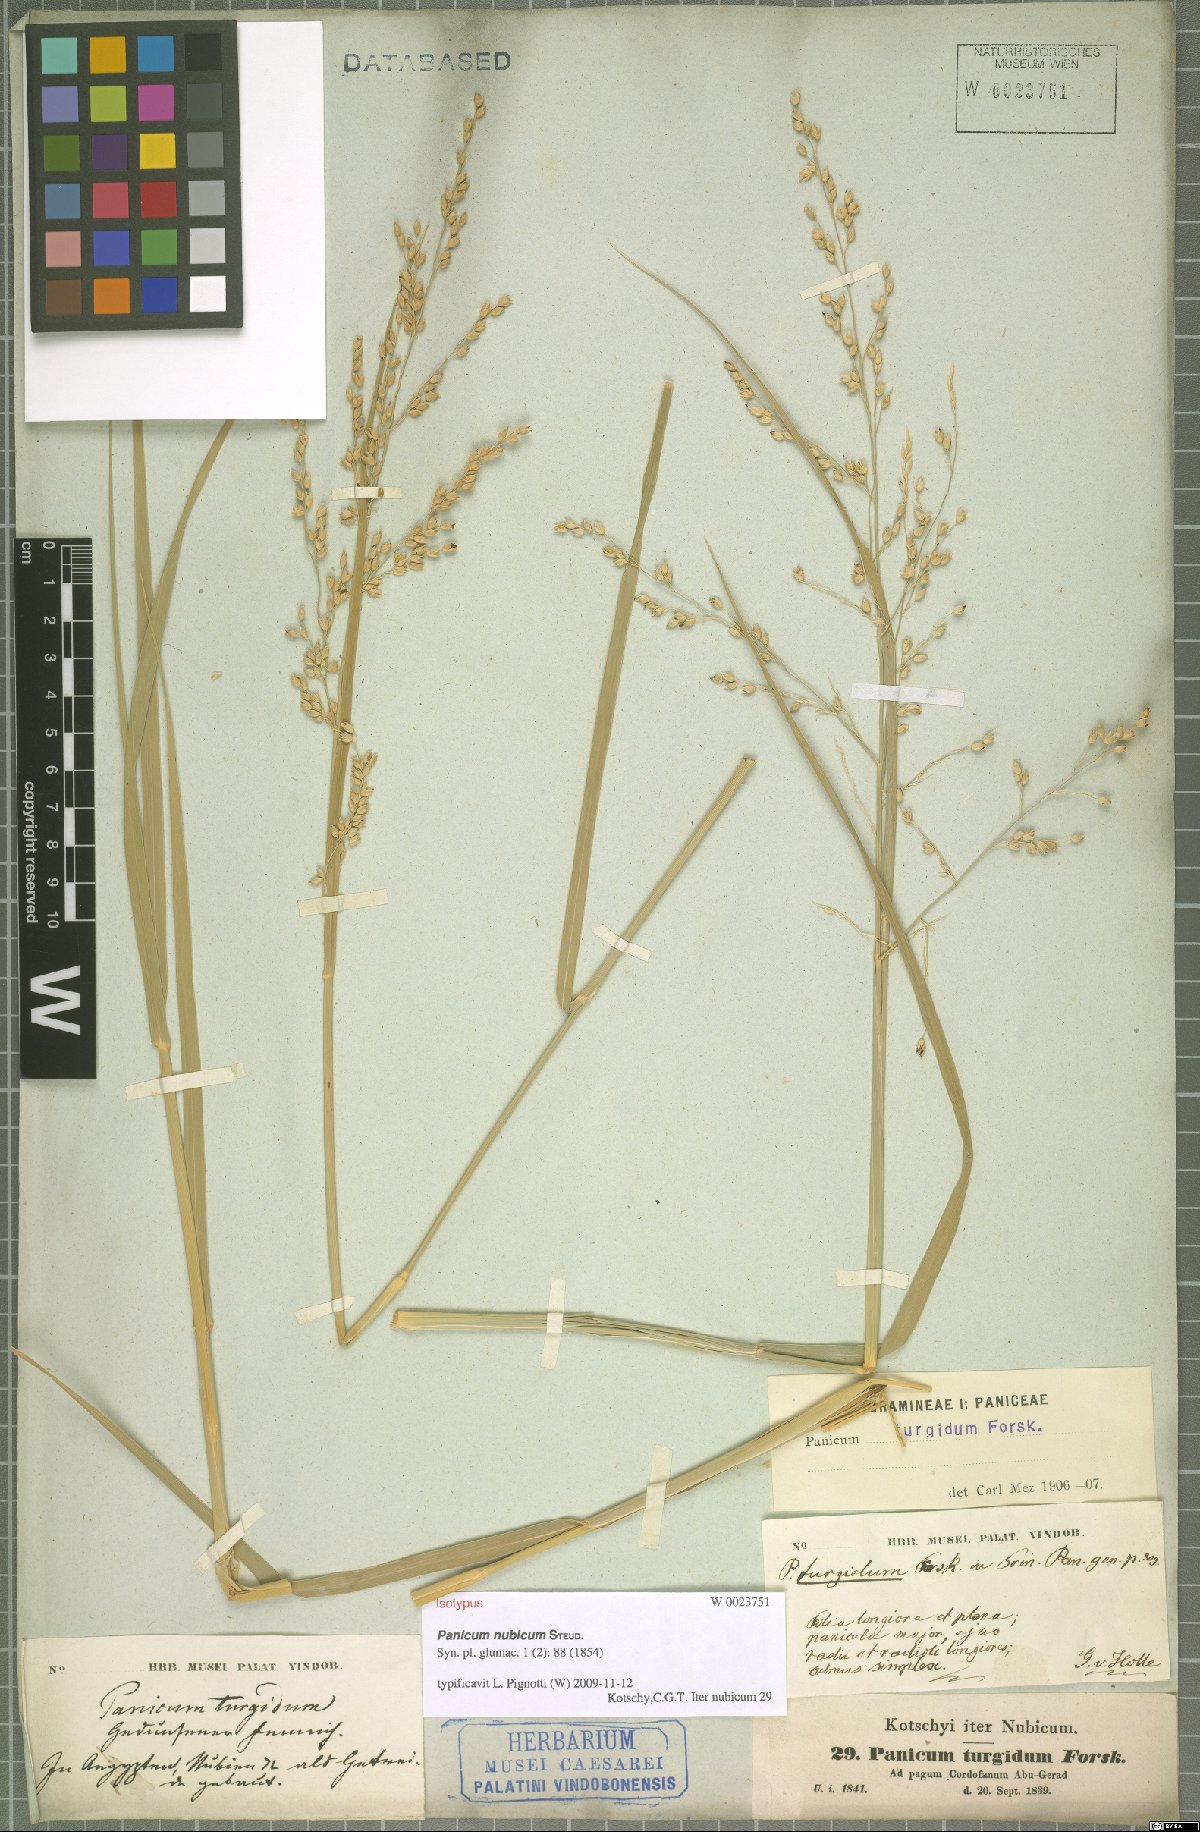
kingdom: Plantae
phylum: Tracheophyta
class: Liliopsida
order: Poales
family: Poaceae
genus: Panicum
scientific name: Panicum nubicum
